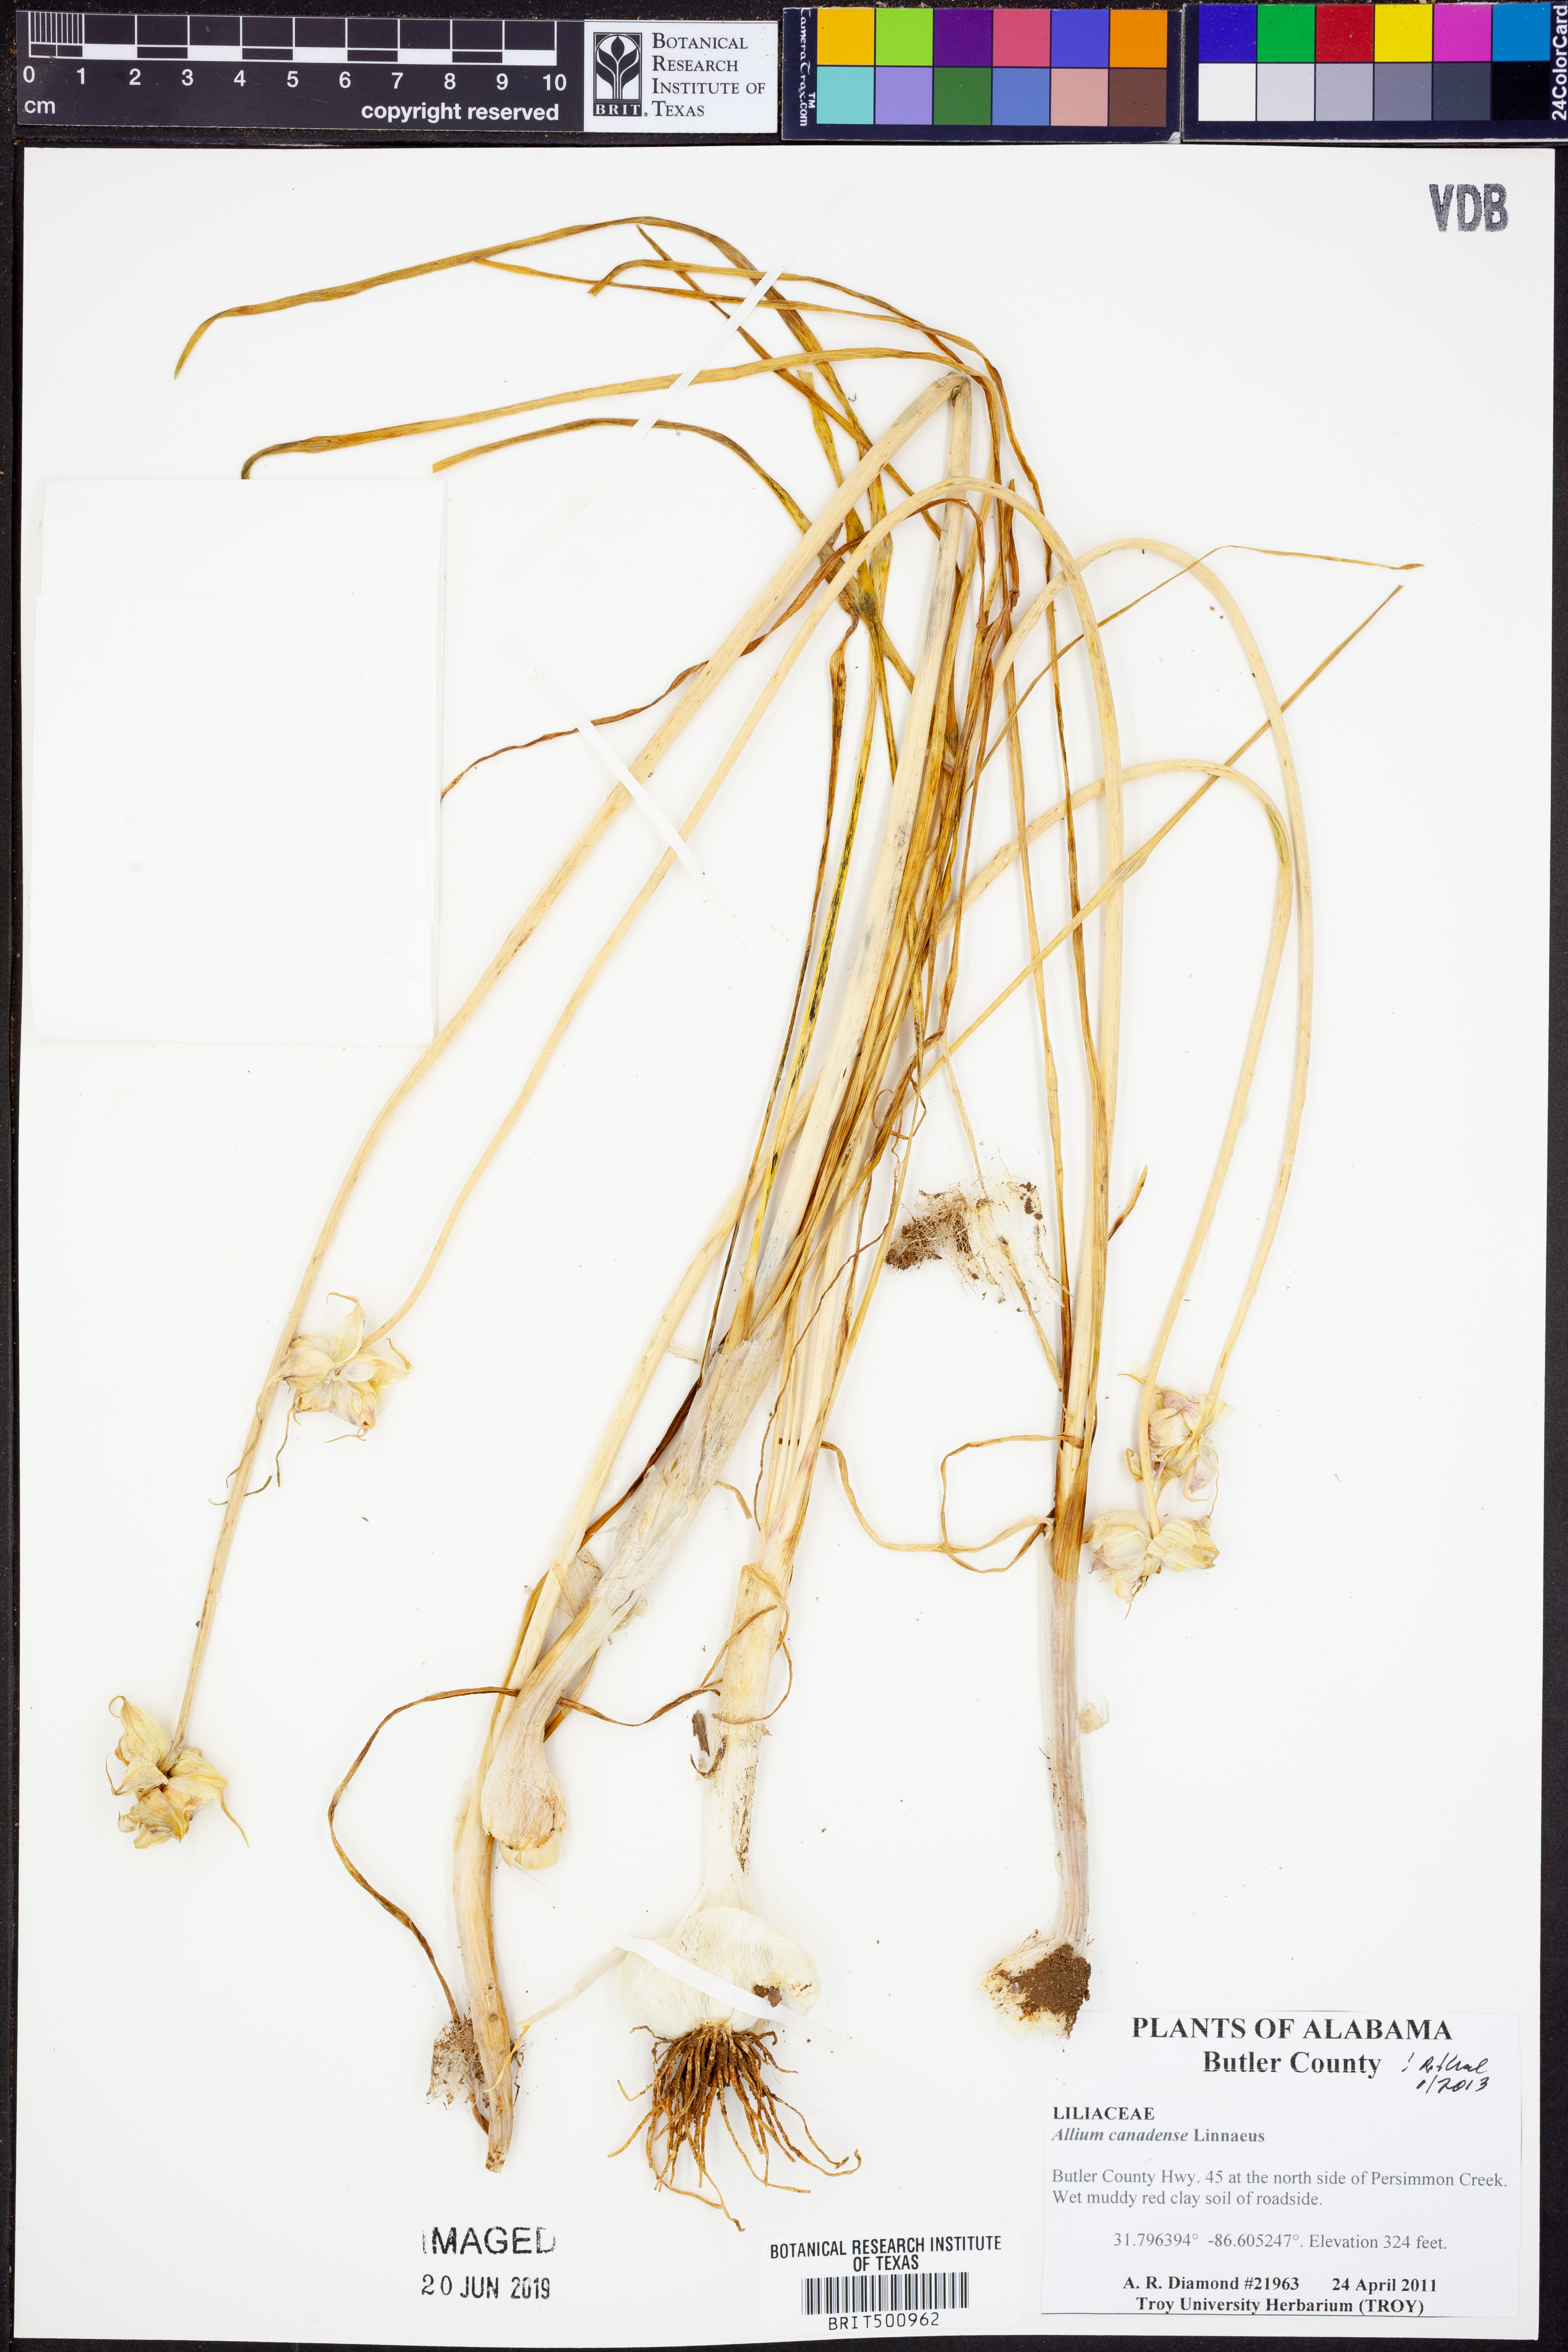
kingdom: Plantae
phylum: Tracheophyta
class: Liliopsida
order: Asparagales
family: Amaryllidaceae
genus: Allium
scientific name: Allium canadense
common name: Meadow garlic
